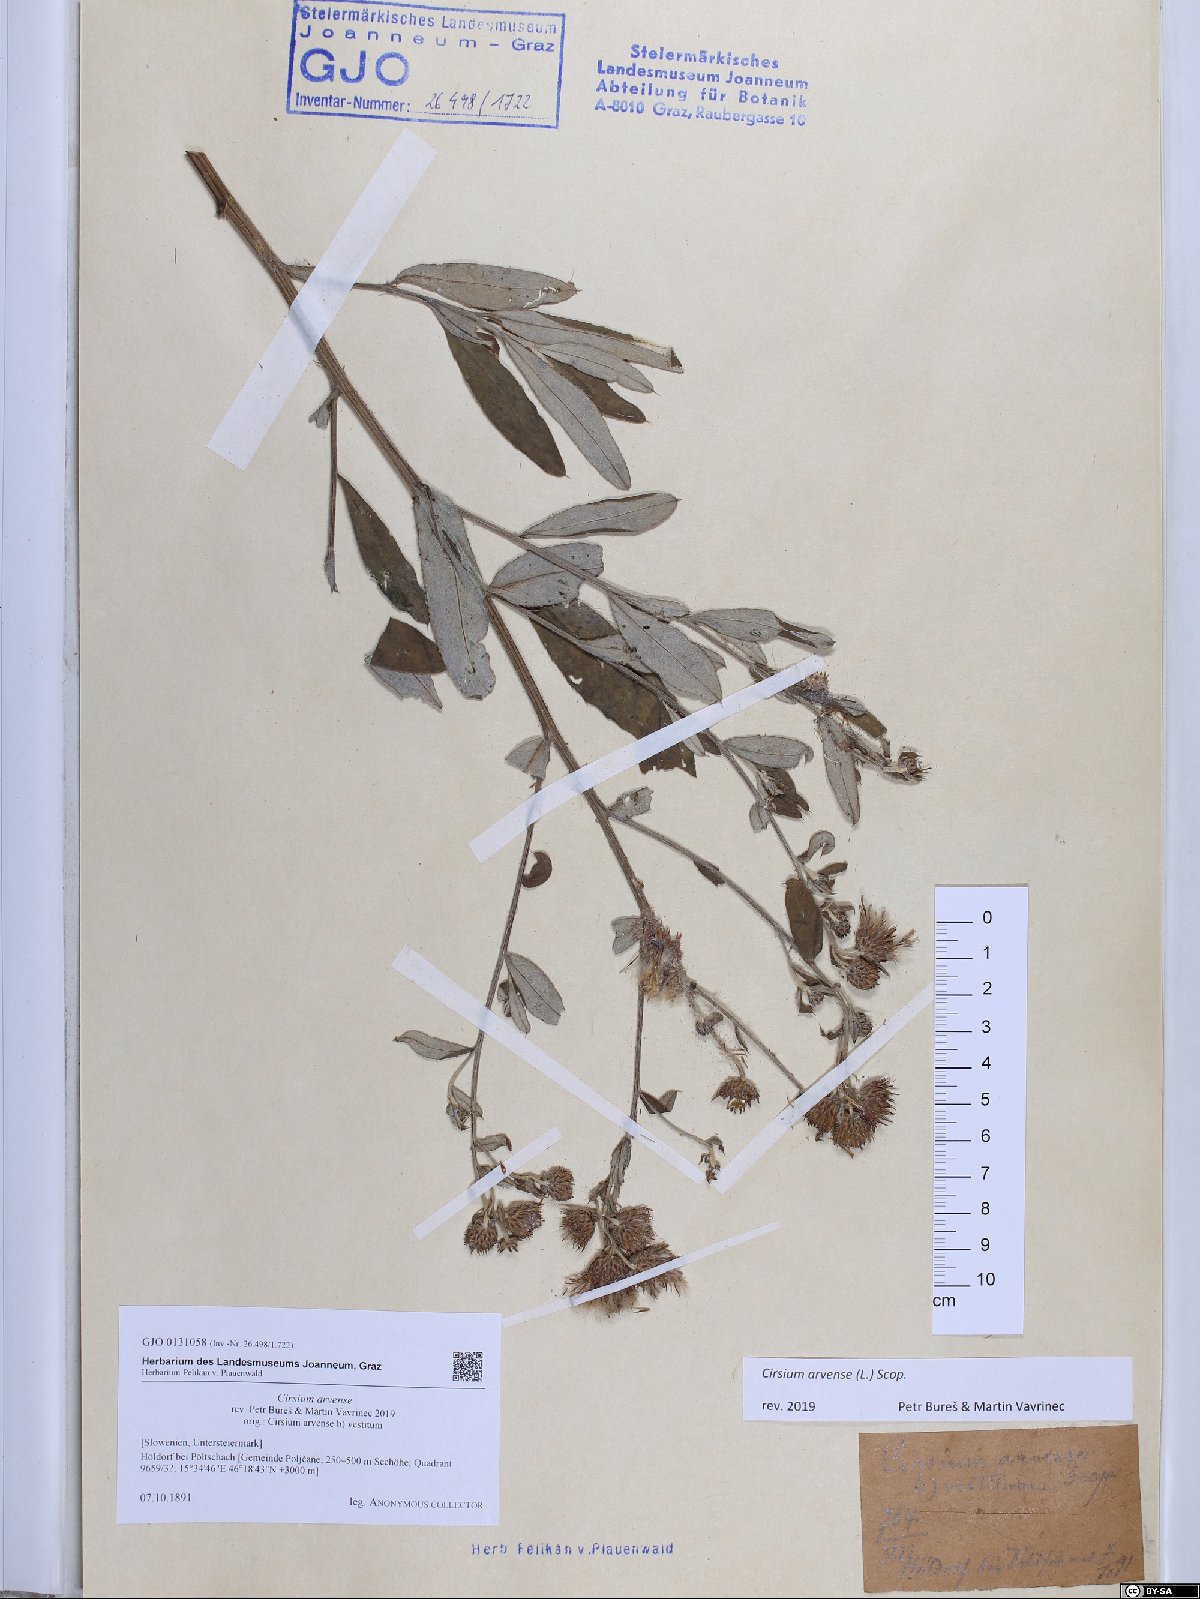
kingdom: Plantae
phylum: Tracheophyta
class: Magnoliopsida
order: Asterales
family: Asteraceae
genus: Cirsium
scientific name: Cirsium arvense
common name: Creeping thistle
